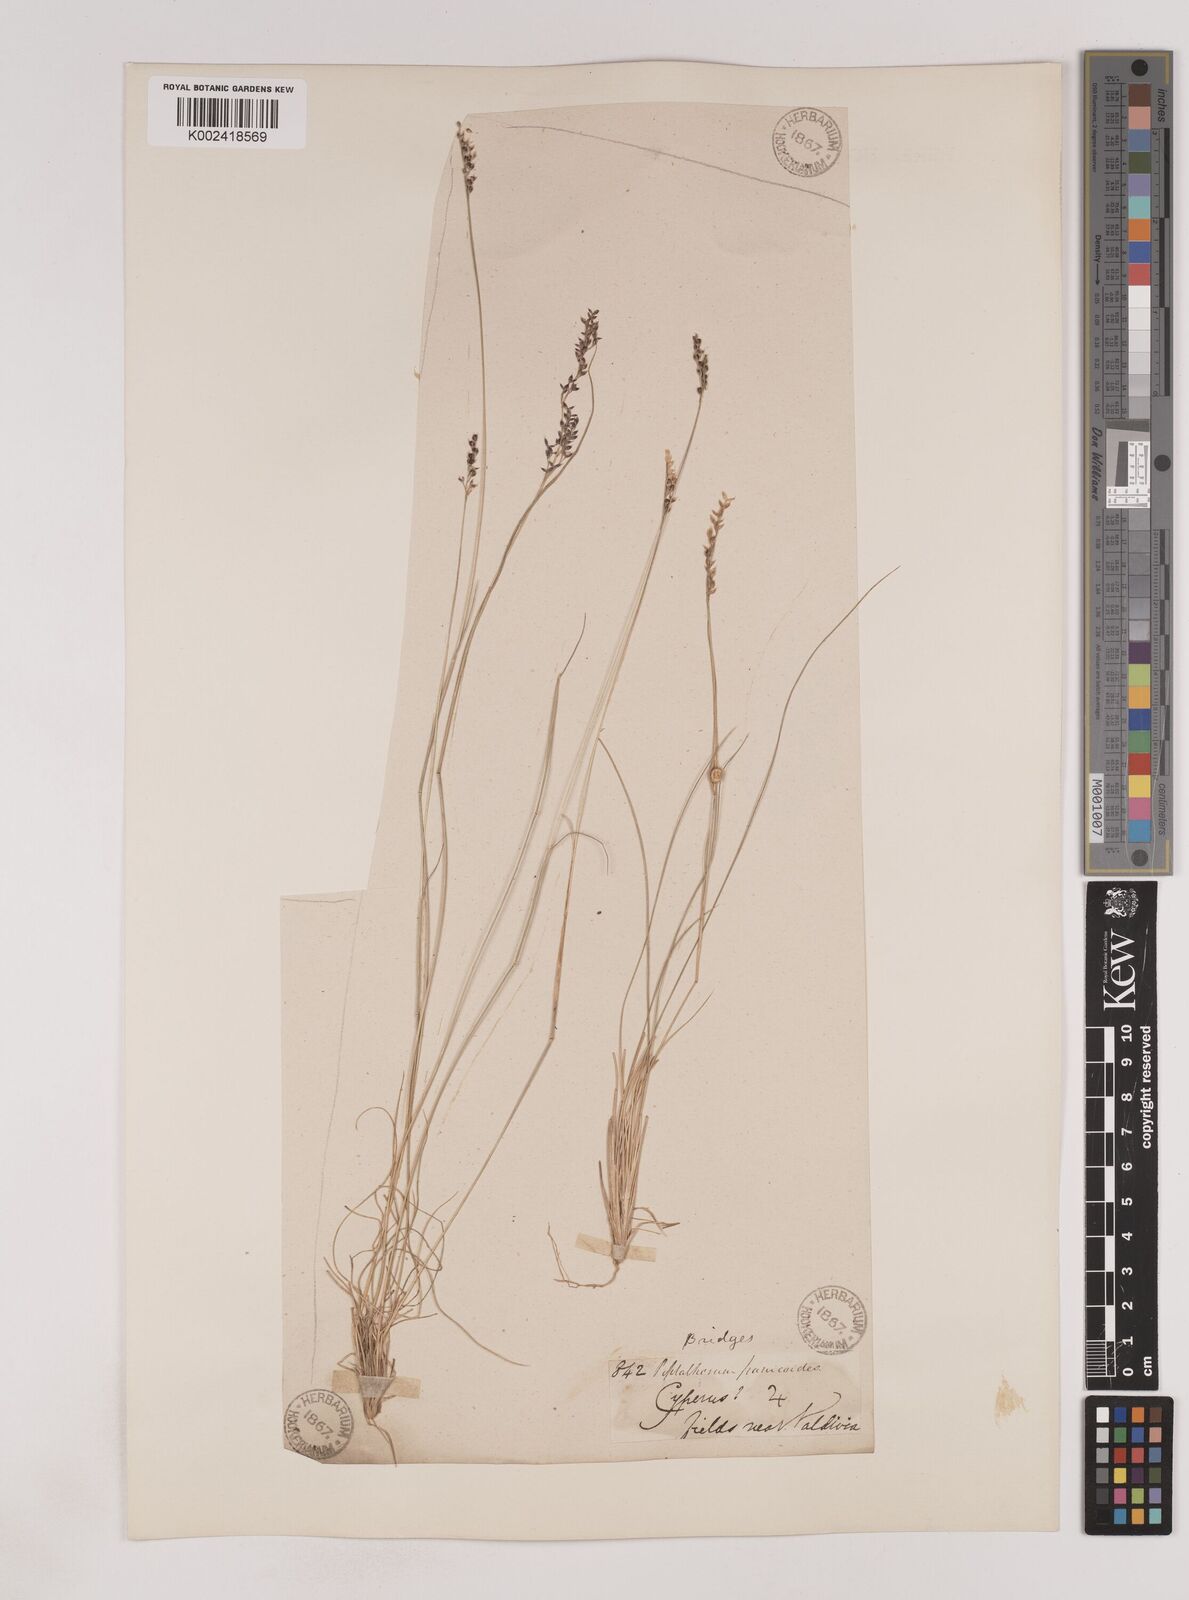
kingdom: Plantae
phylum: Tracheophyta
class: Liliopsida
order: Poales
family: Poaceae
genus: Piptochaetium
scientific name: Piptochaetium montevidense
